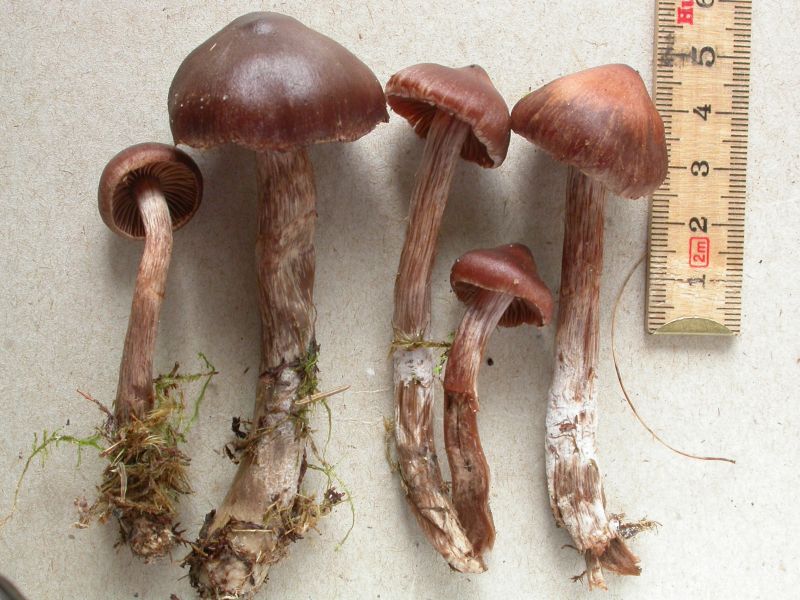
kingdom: Fungi
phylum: Basidiomycota
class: Agaricomycetes
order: Agaricales
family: Cortinariaceae
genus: Cortinarius
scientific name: Cortinarius brunneus
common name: sortbrun slørhat
